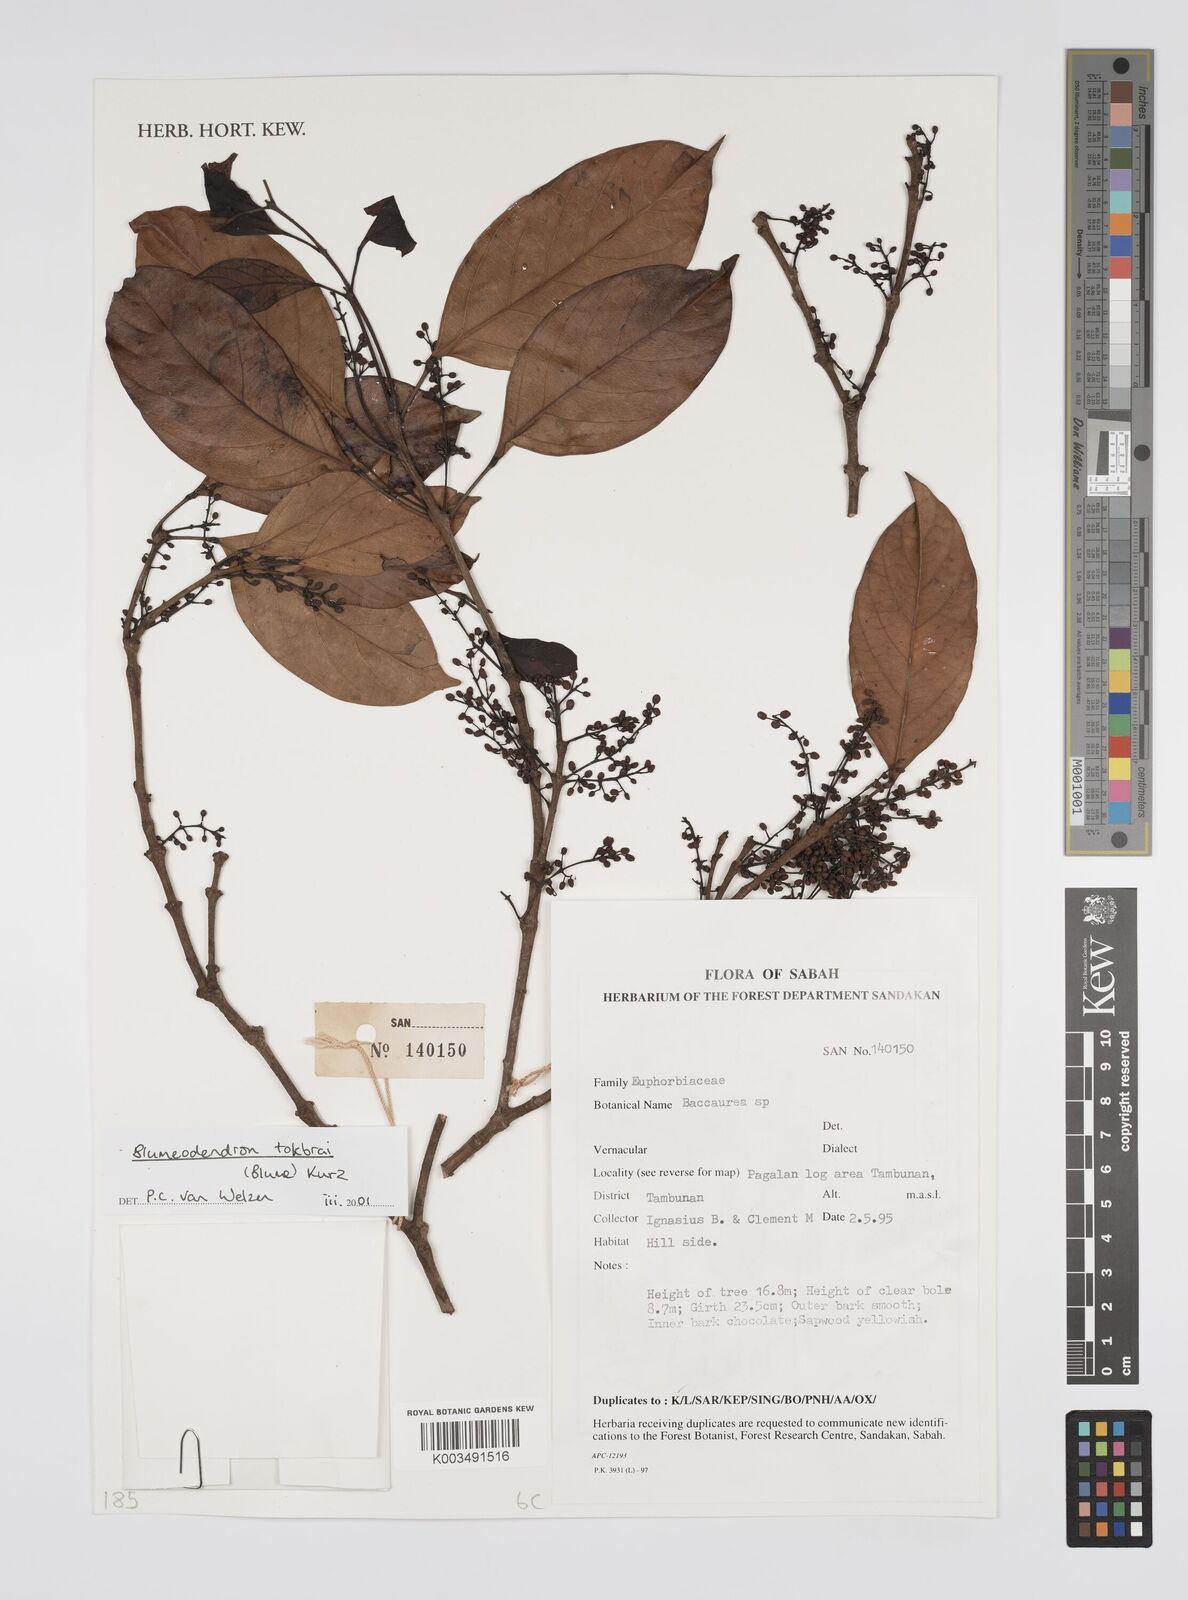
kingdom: Plantae
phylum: Tracheophyta
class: Magnoliopsida
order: Malpighiales
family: Euphorbiaceae
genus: Blumeodendron
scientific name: Blumeodendron tokbrai
